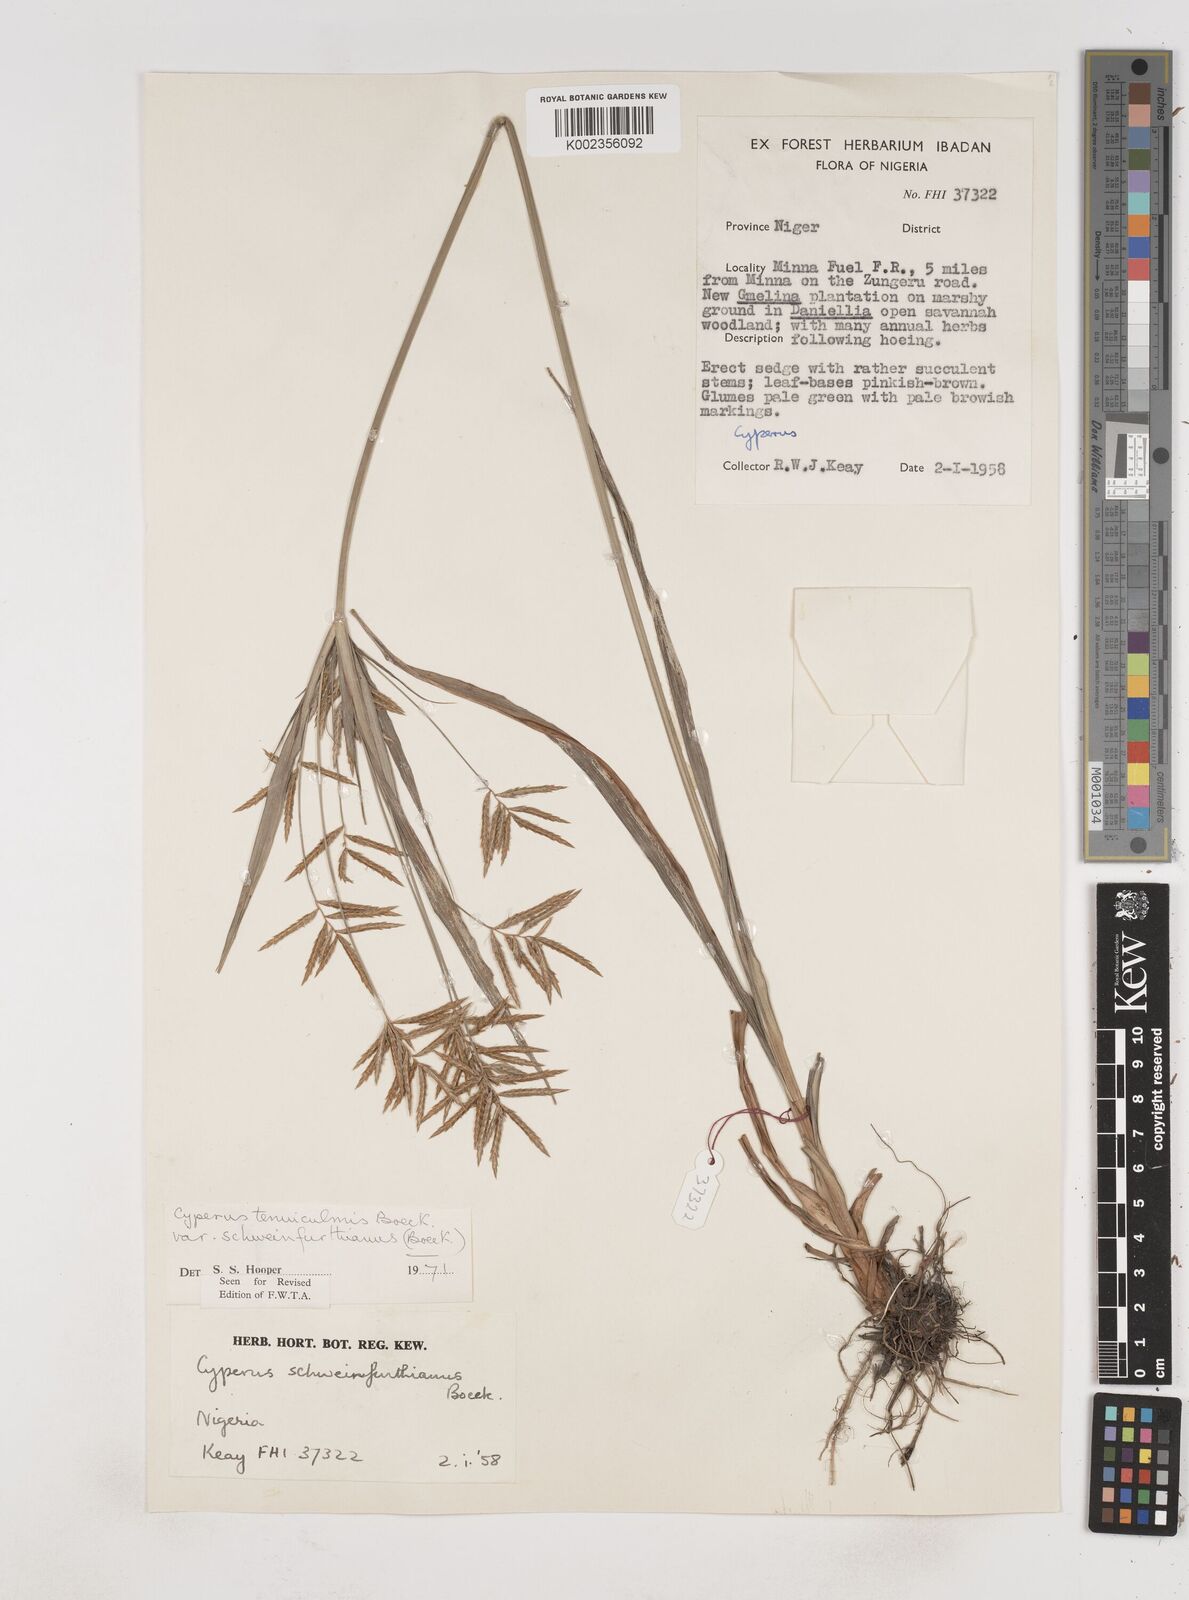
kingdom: Plantae
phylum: Tracheophyta
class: Liliopsida
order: Poales
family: Cyperaceae
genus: Cyperus
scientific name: Cyperus tenuiculmis
